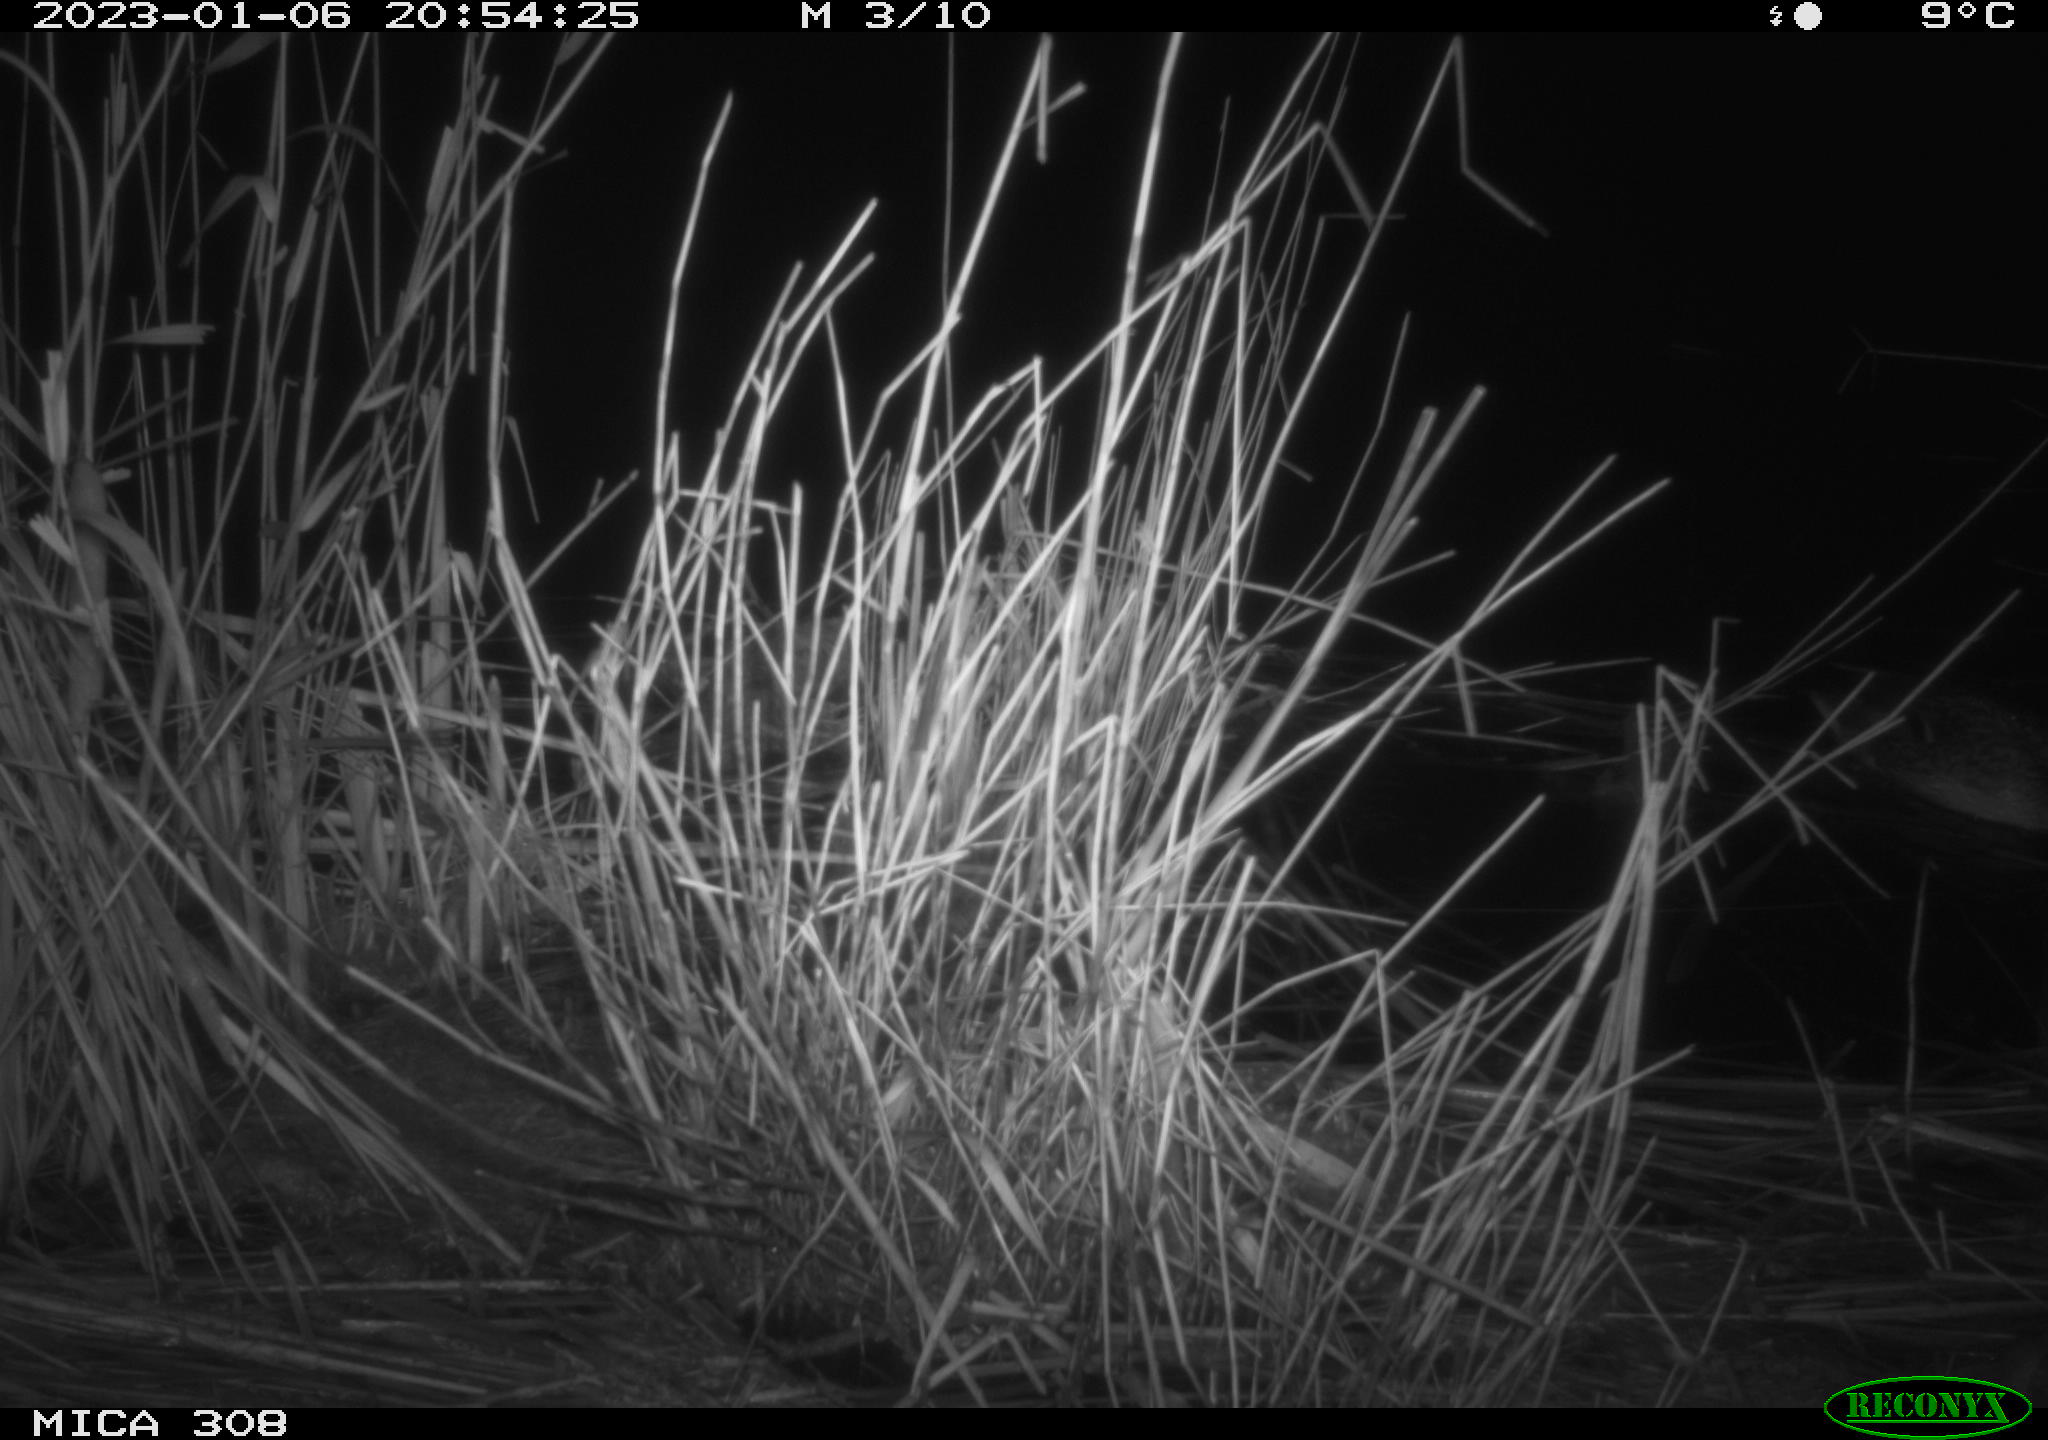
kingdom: Animalia
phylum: Chordata
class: Aves
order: Anseriformes
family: Anatidae
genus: Anas
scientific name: Anas
